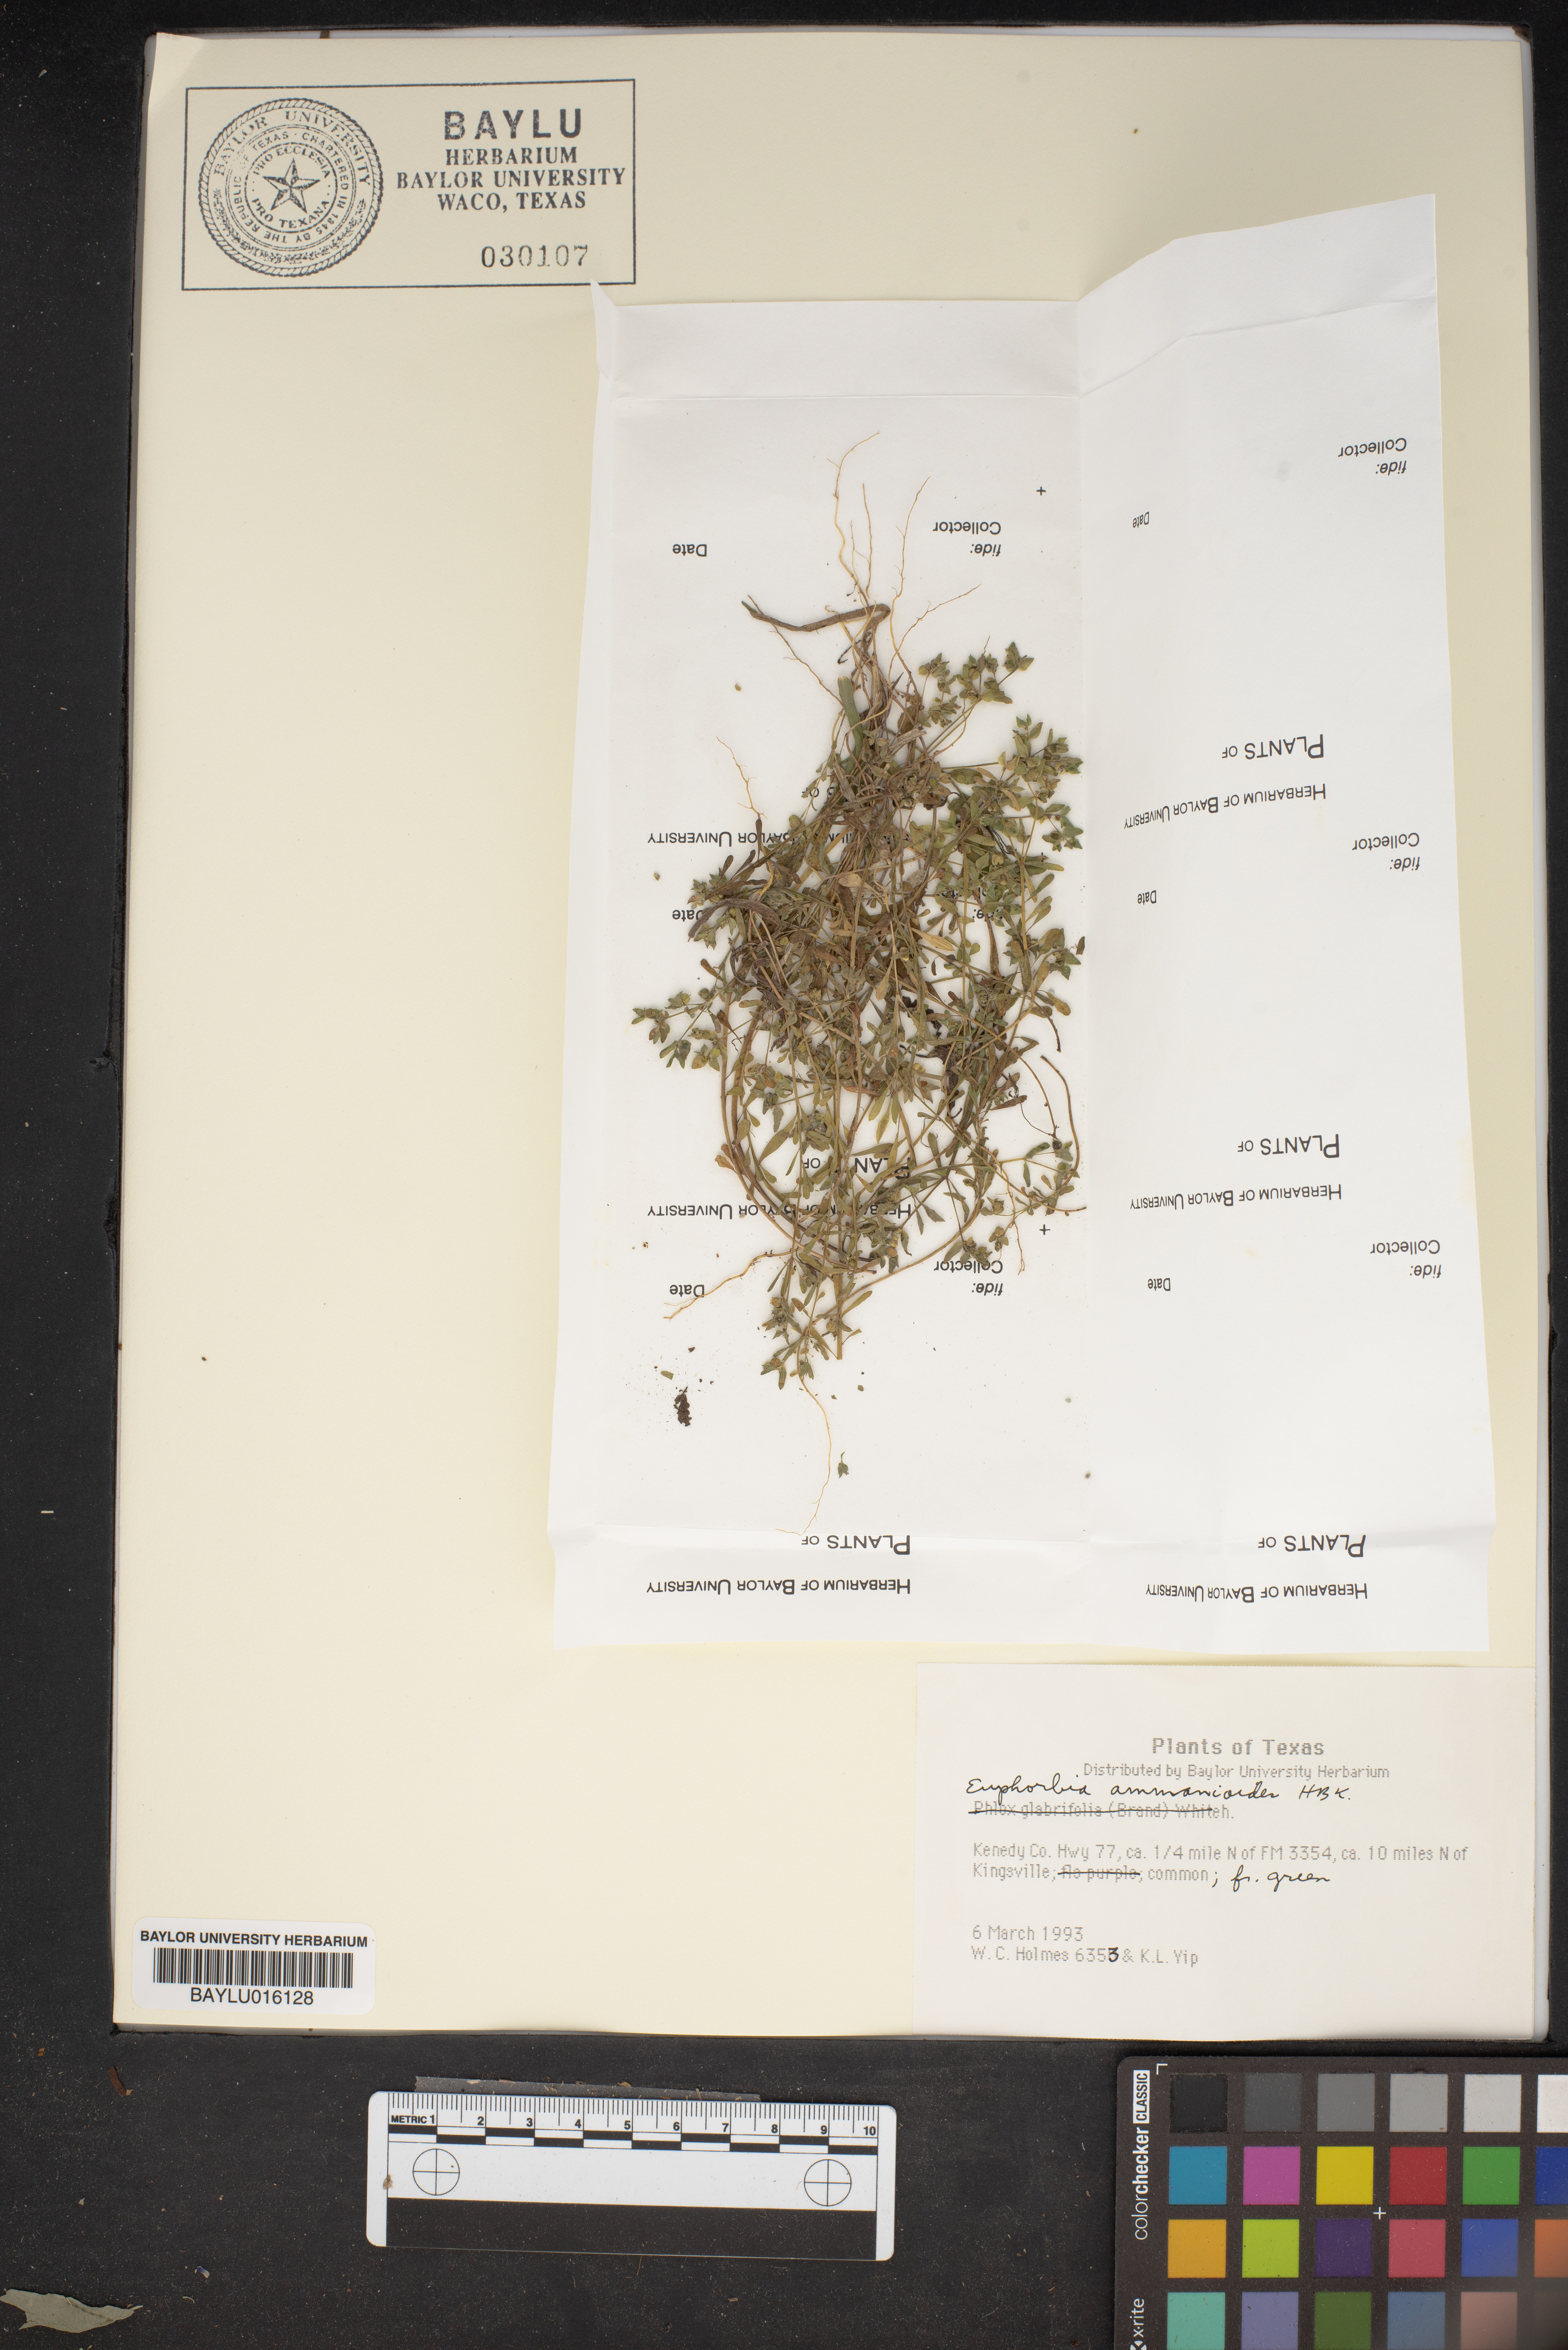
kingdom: Plantae
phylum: Tracheophyta
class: Magnoliopsida
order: Malpighiales
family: Euphorbiaceae
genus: Euphorbia
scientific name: Euphorbia bombensis
